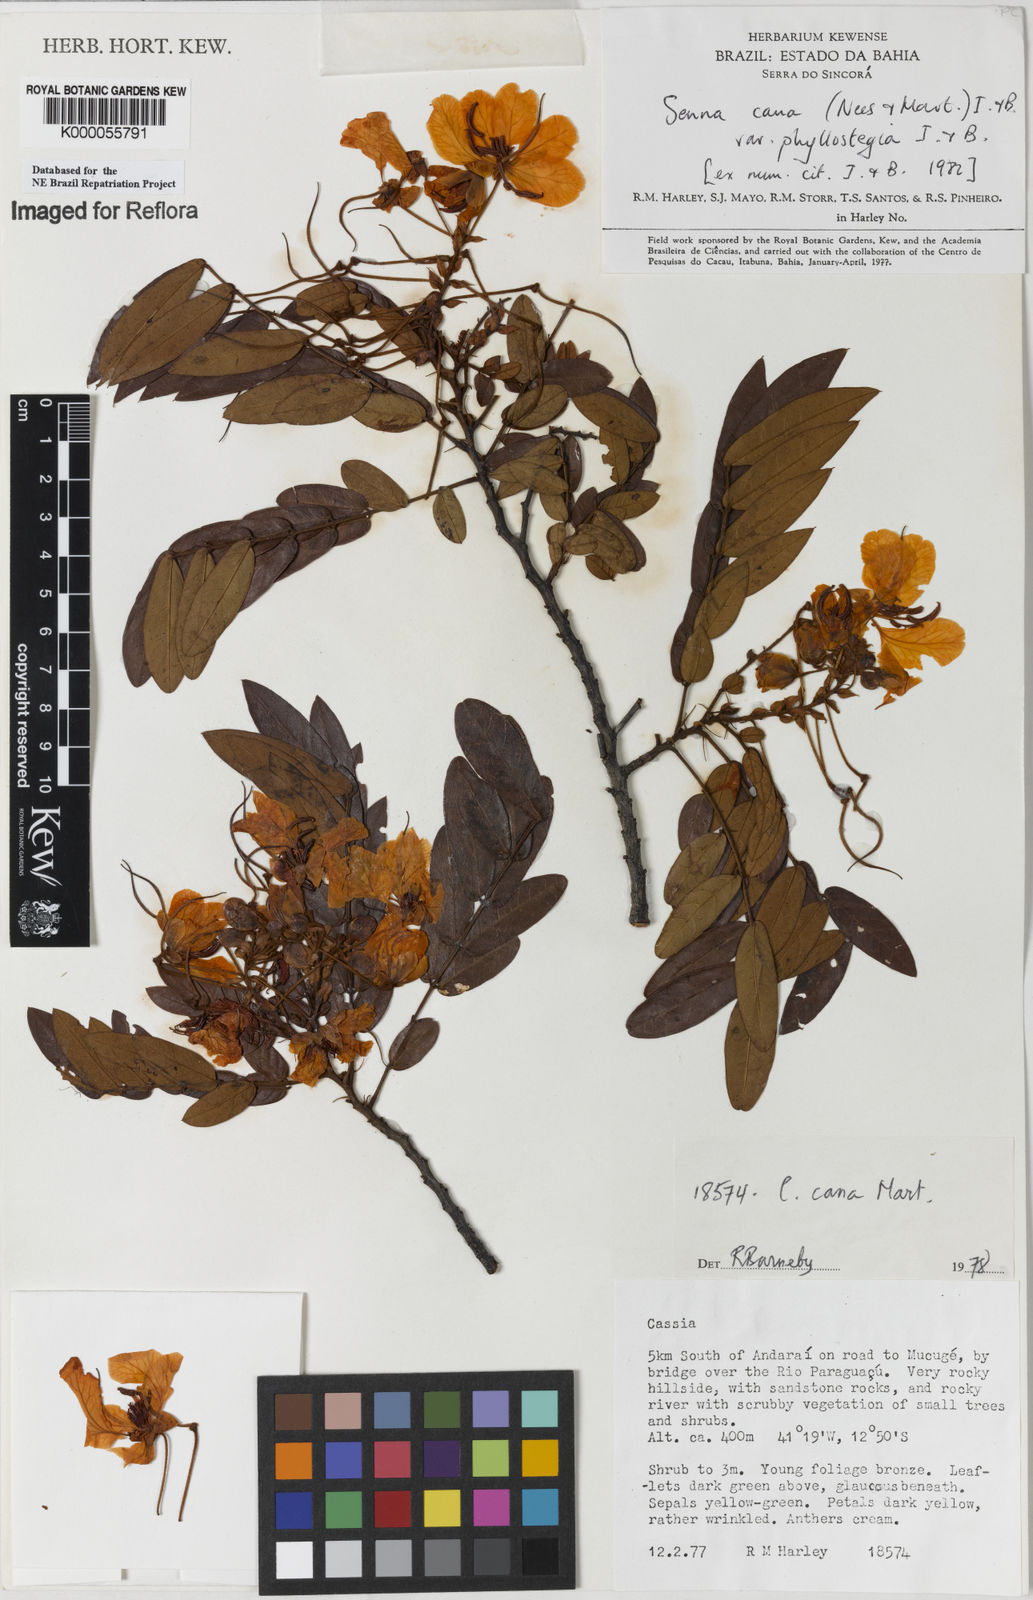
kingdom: Plantae
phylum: Tracheophyta
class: Magnoliopsida
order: Fabales
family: Fabaceae
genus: Senna
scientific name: Senna cana
